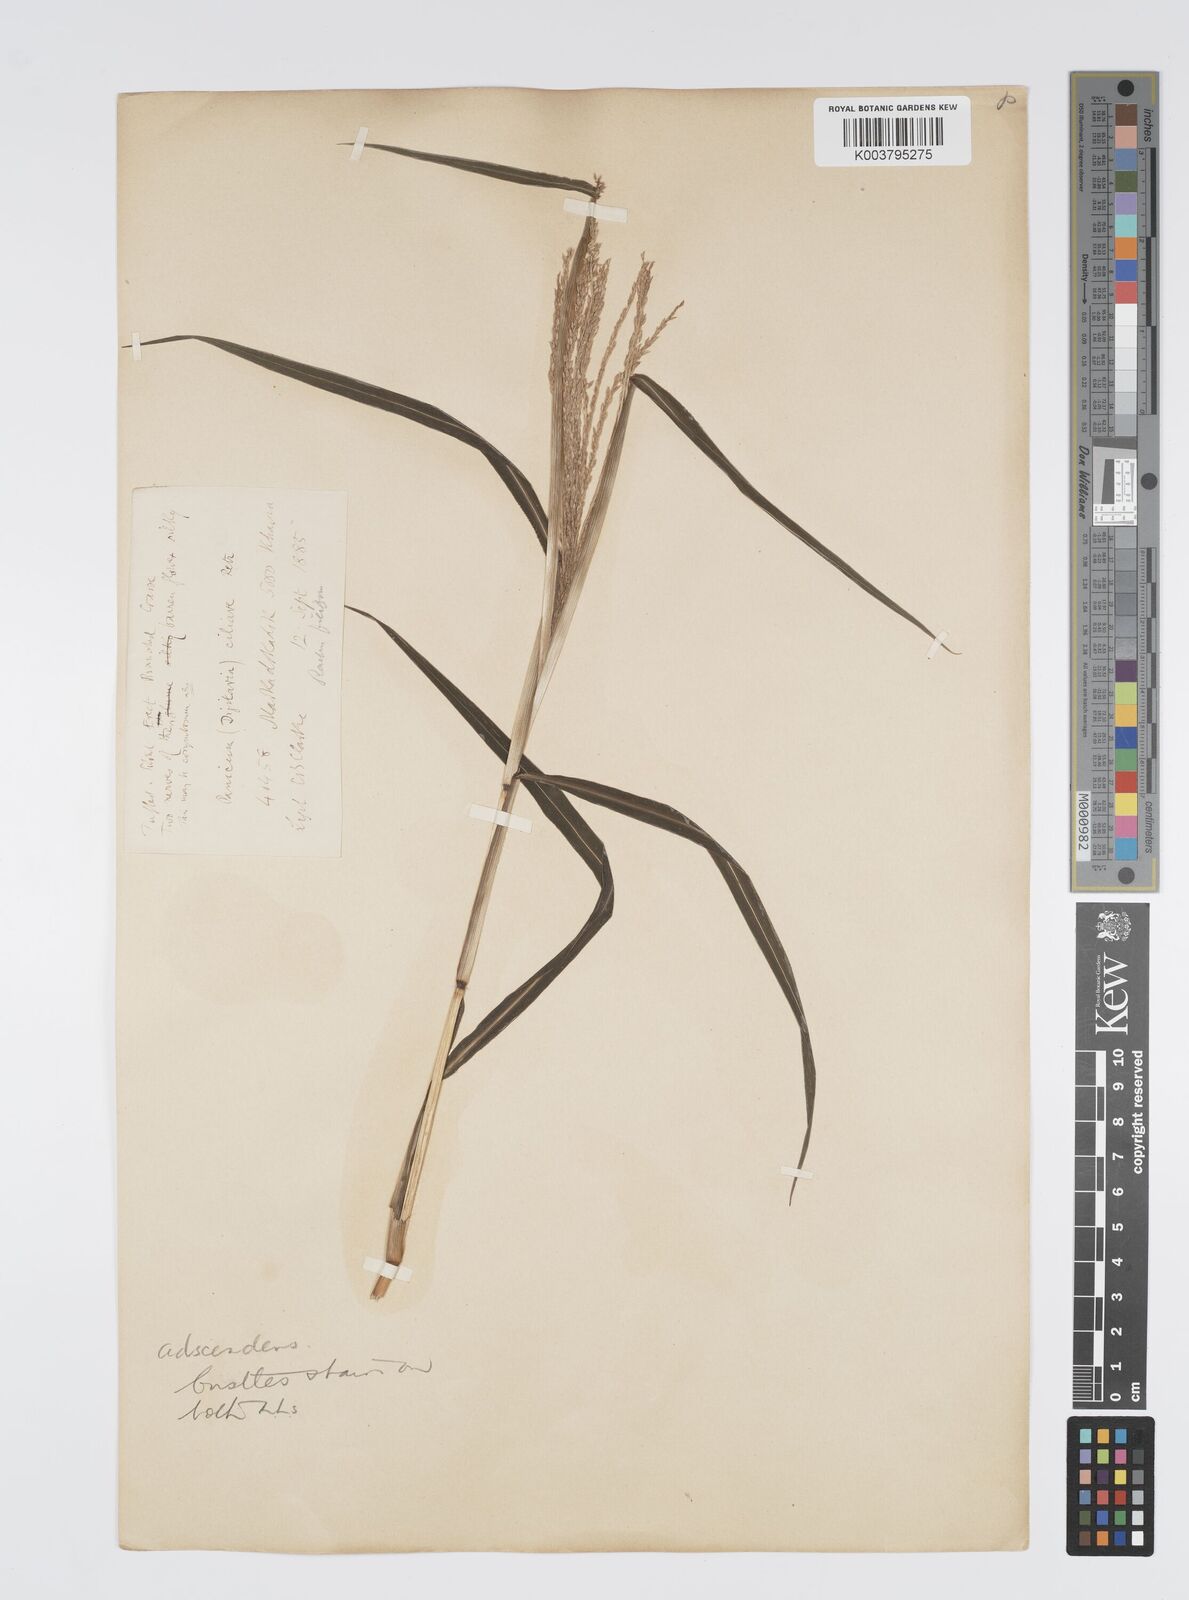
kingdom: Plantae
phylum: Tracheophyta
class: Liliopsida
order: Poales
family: Poaceae
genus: Digitaria
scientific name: Digitaria ciliaris
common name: Tropical finger-grass
